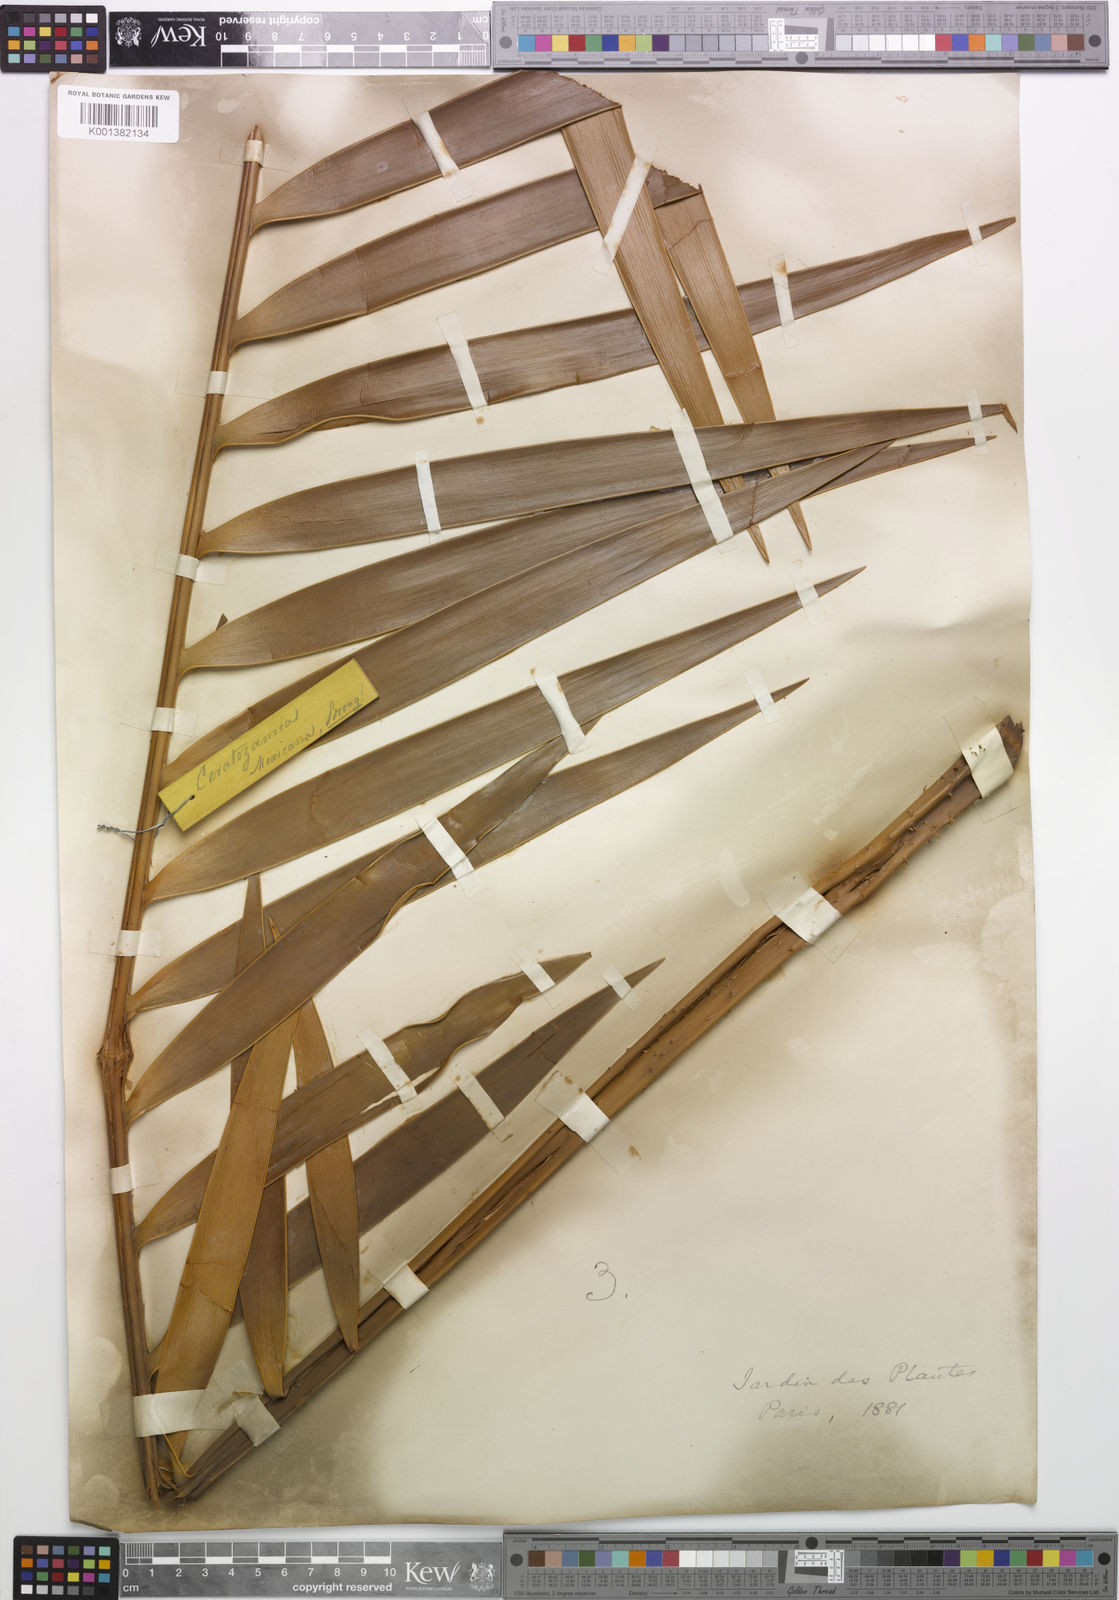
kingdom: Plantae
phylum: Tracheophyta
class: Cycadopsida
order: Cycadales
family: Zamiaceae
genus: Ceratozamia
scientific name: Ceratozamia mexicana
